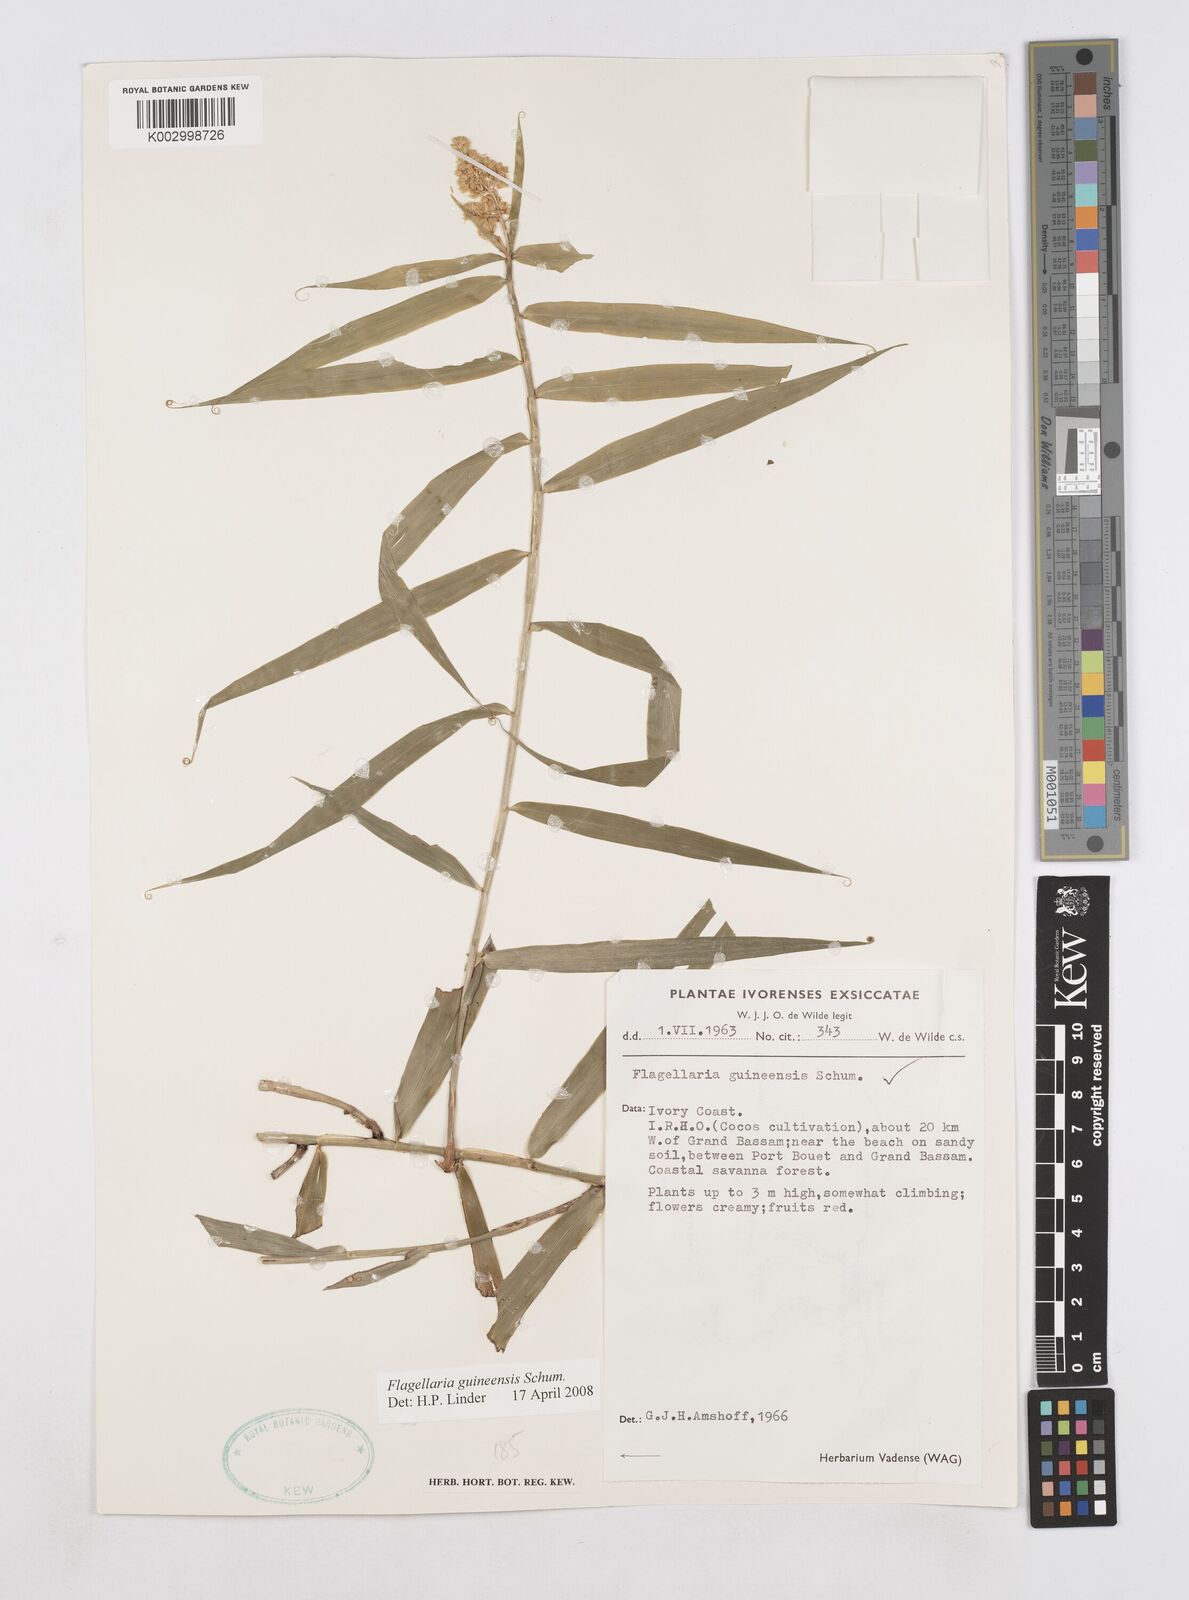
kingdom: Plantae
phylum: Tracheophyta
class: Liliopsida
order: Poales
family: Flagellariaceae
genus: Flagellaria
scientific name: Flagellaria guineensis
